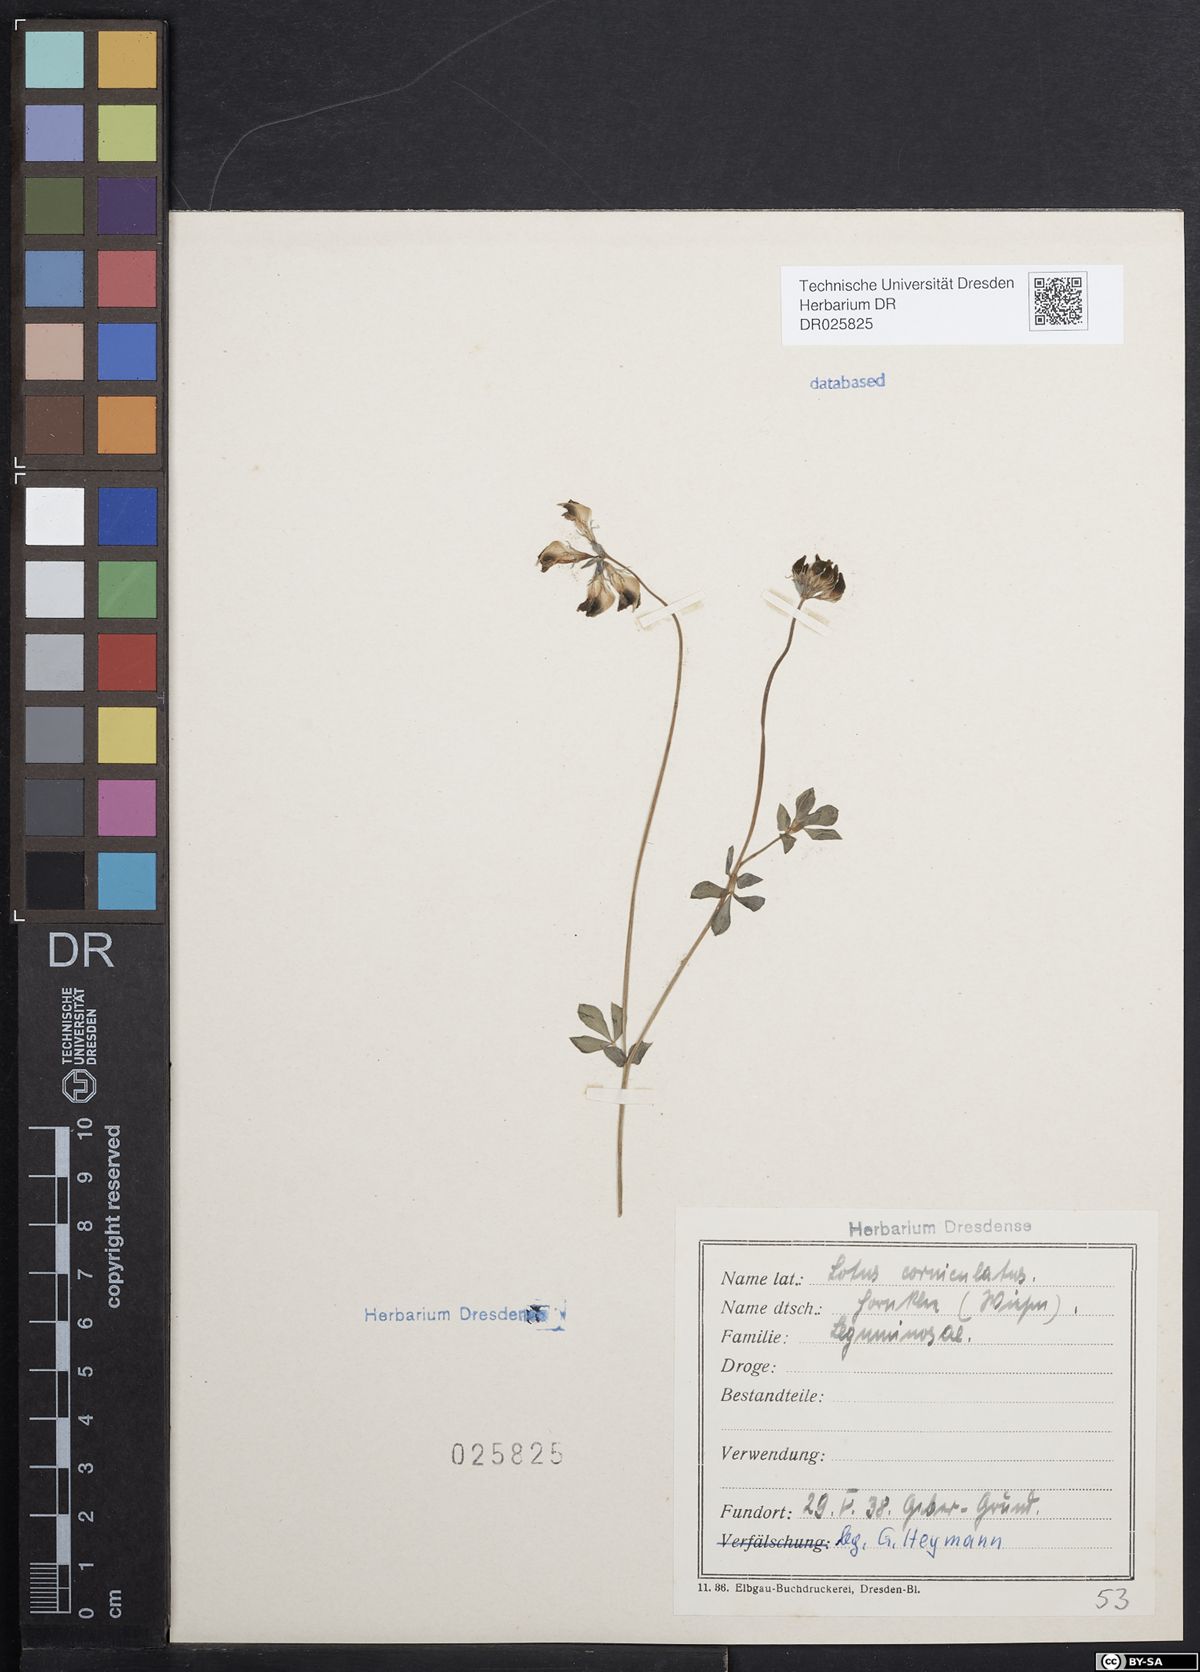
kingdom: Plantae
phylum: Tracheophyta
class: Magnoliopsida
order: Fabales
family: Fabaceae
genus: Lotus
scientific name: Lotus corniculatus
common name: Common bird's-foot-trefoil
